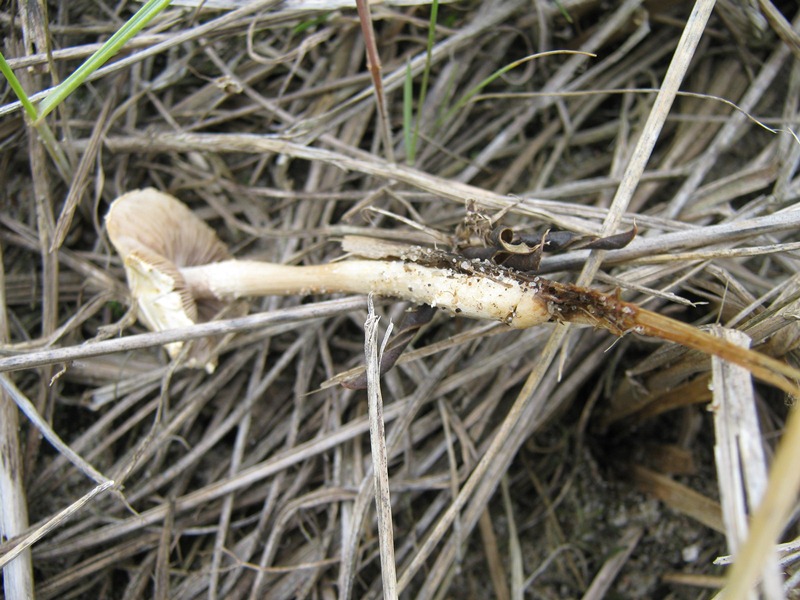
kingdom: Fungi
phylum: Basidiomycota
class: Agaricomycetes
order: Agaricales
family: Strophariaceae
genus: Agrocybe
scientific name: Agrocybe dura
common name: fastkødet agerhat
